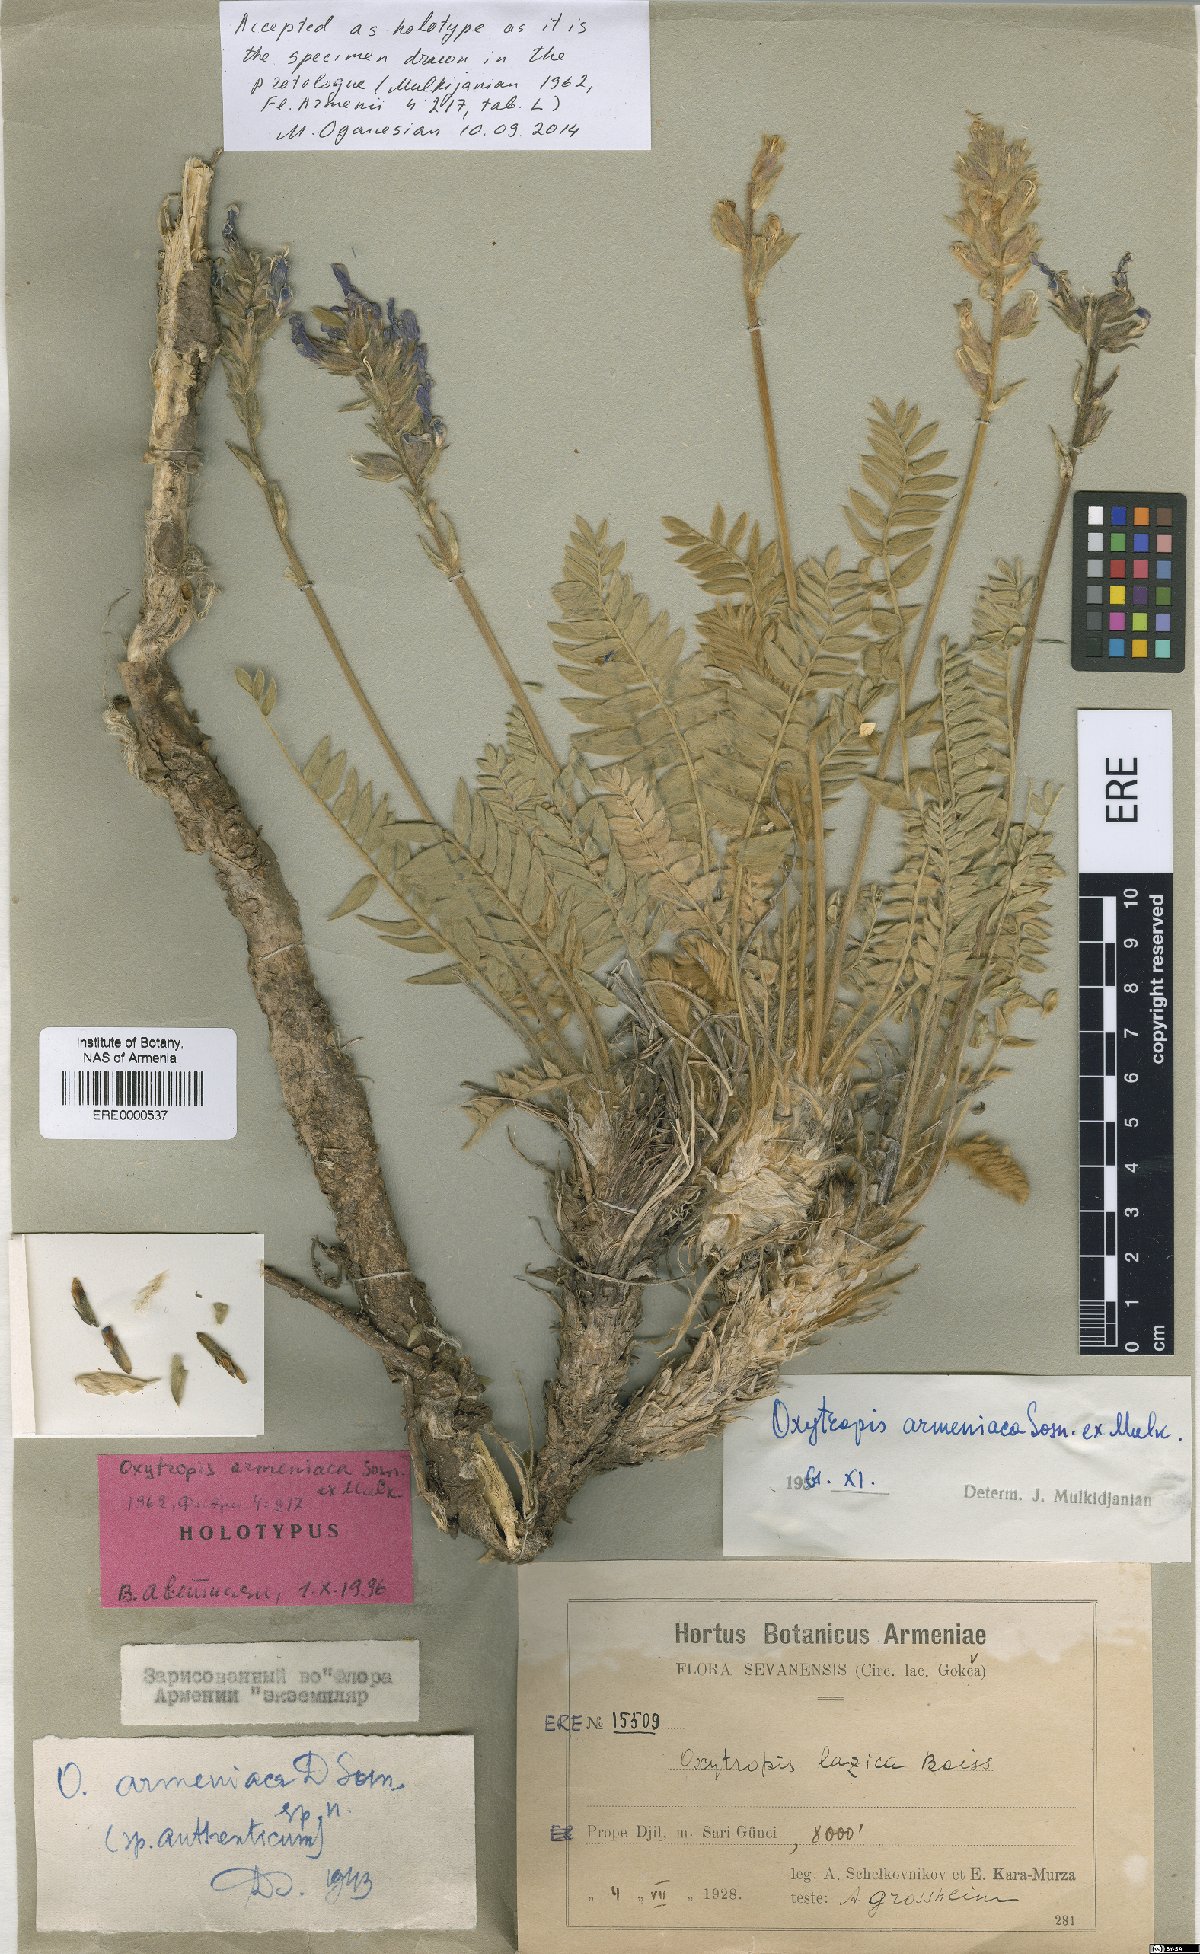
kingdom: Plantae
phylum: Tracheophyta
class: Magnoliopsida
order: Fabales
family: Fabaceae
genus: Oxytropis
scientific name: Oxytropis armeniaca
